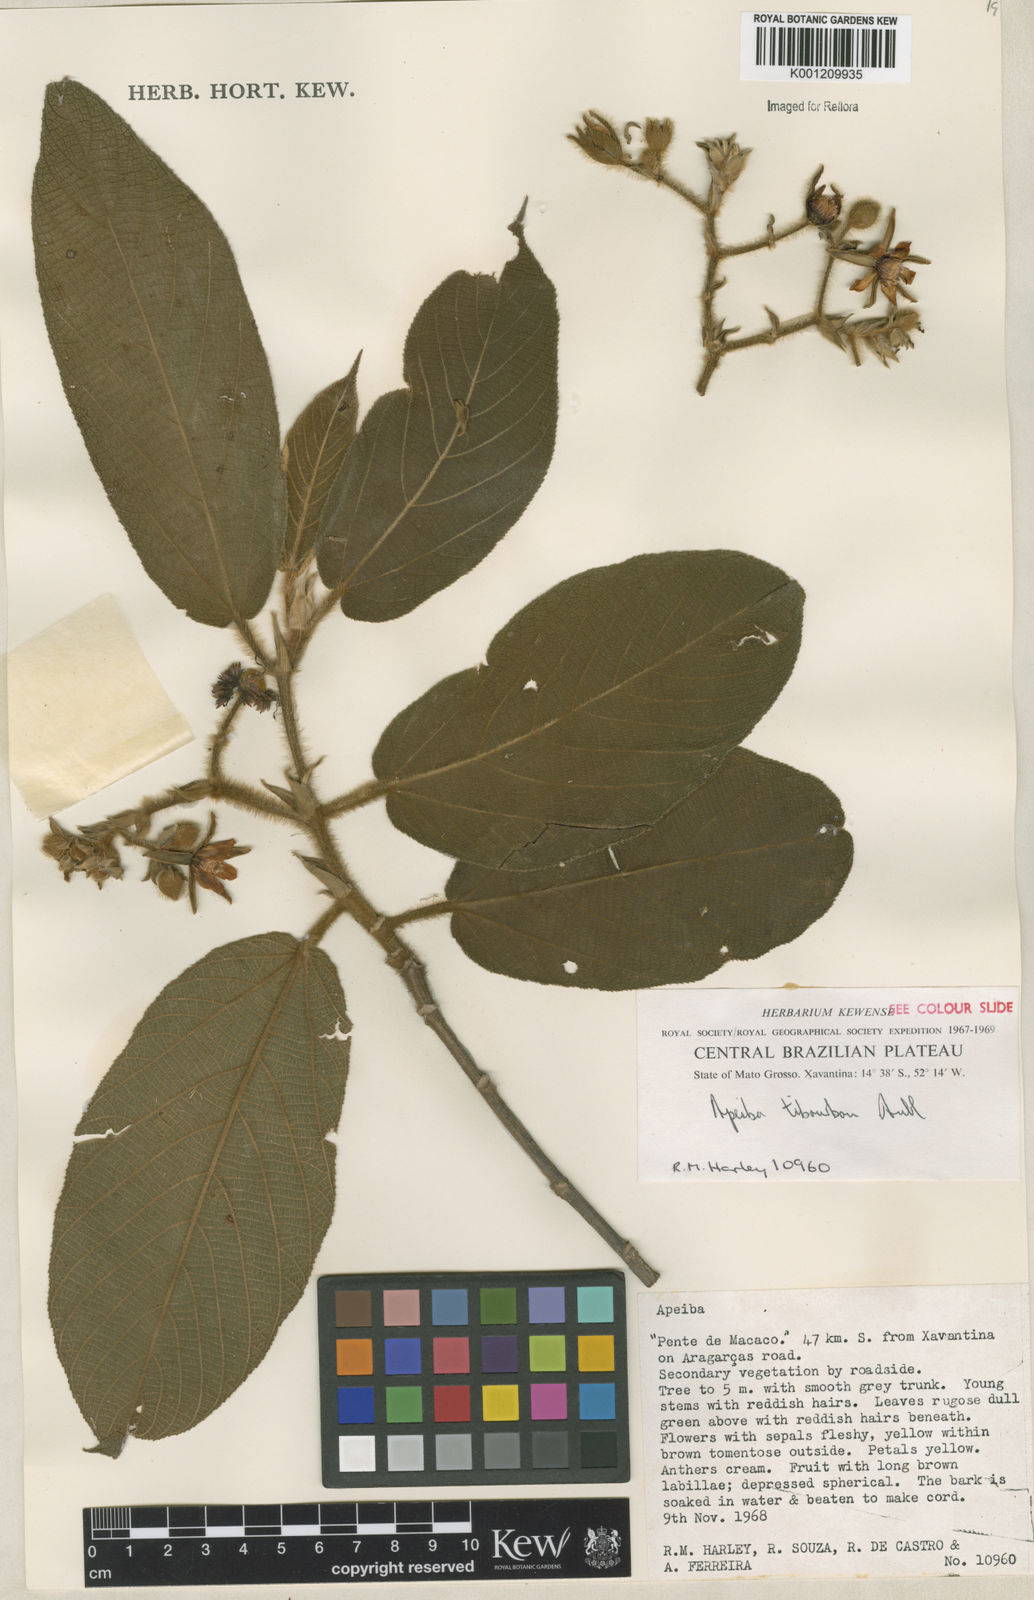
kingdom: Plantae
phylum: Tracheophyta
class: Magnoliopsida
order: Malvales
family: Malvaceae
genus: Apeiba
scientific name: Apeiba tibourbou
